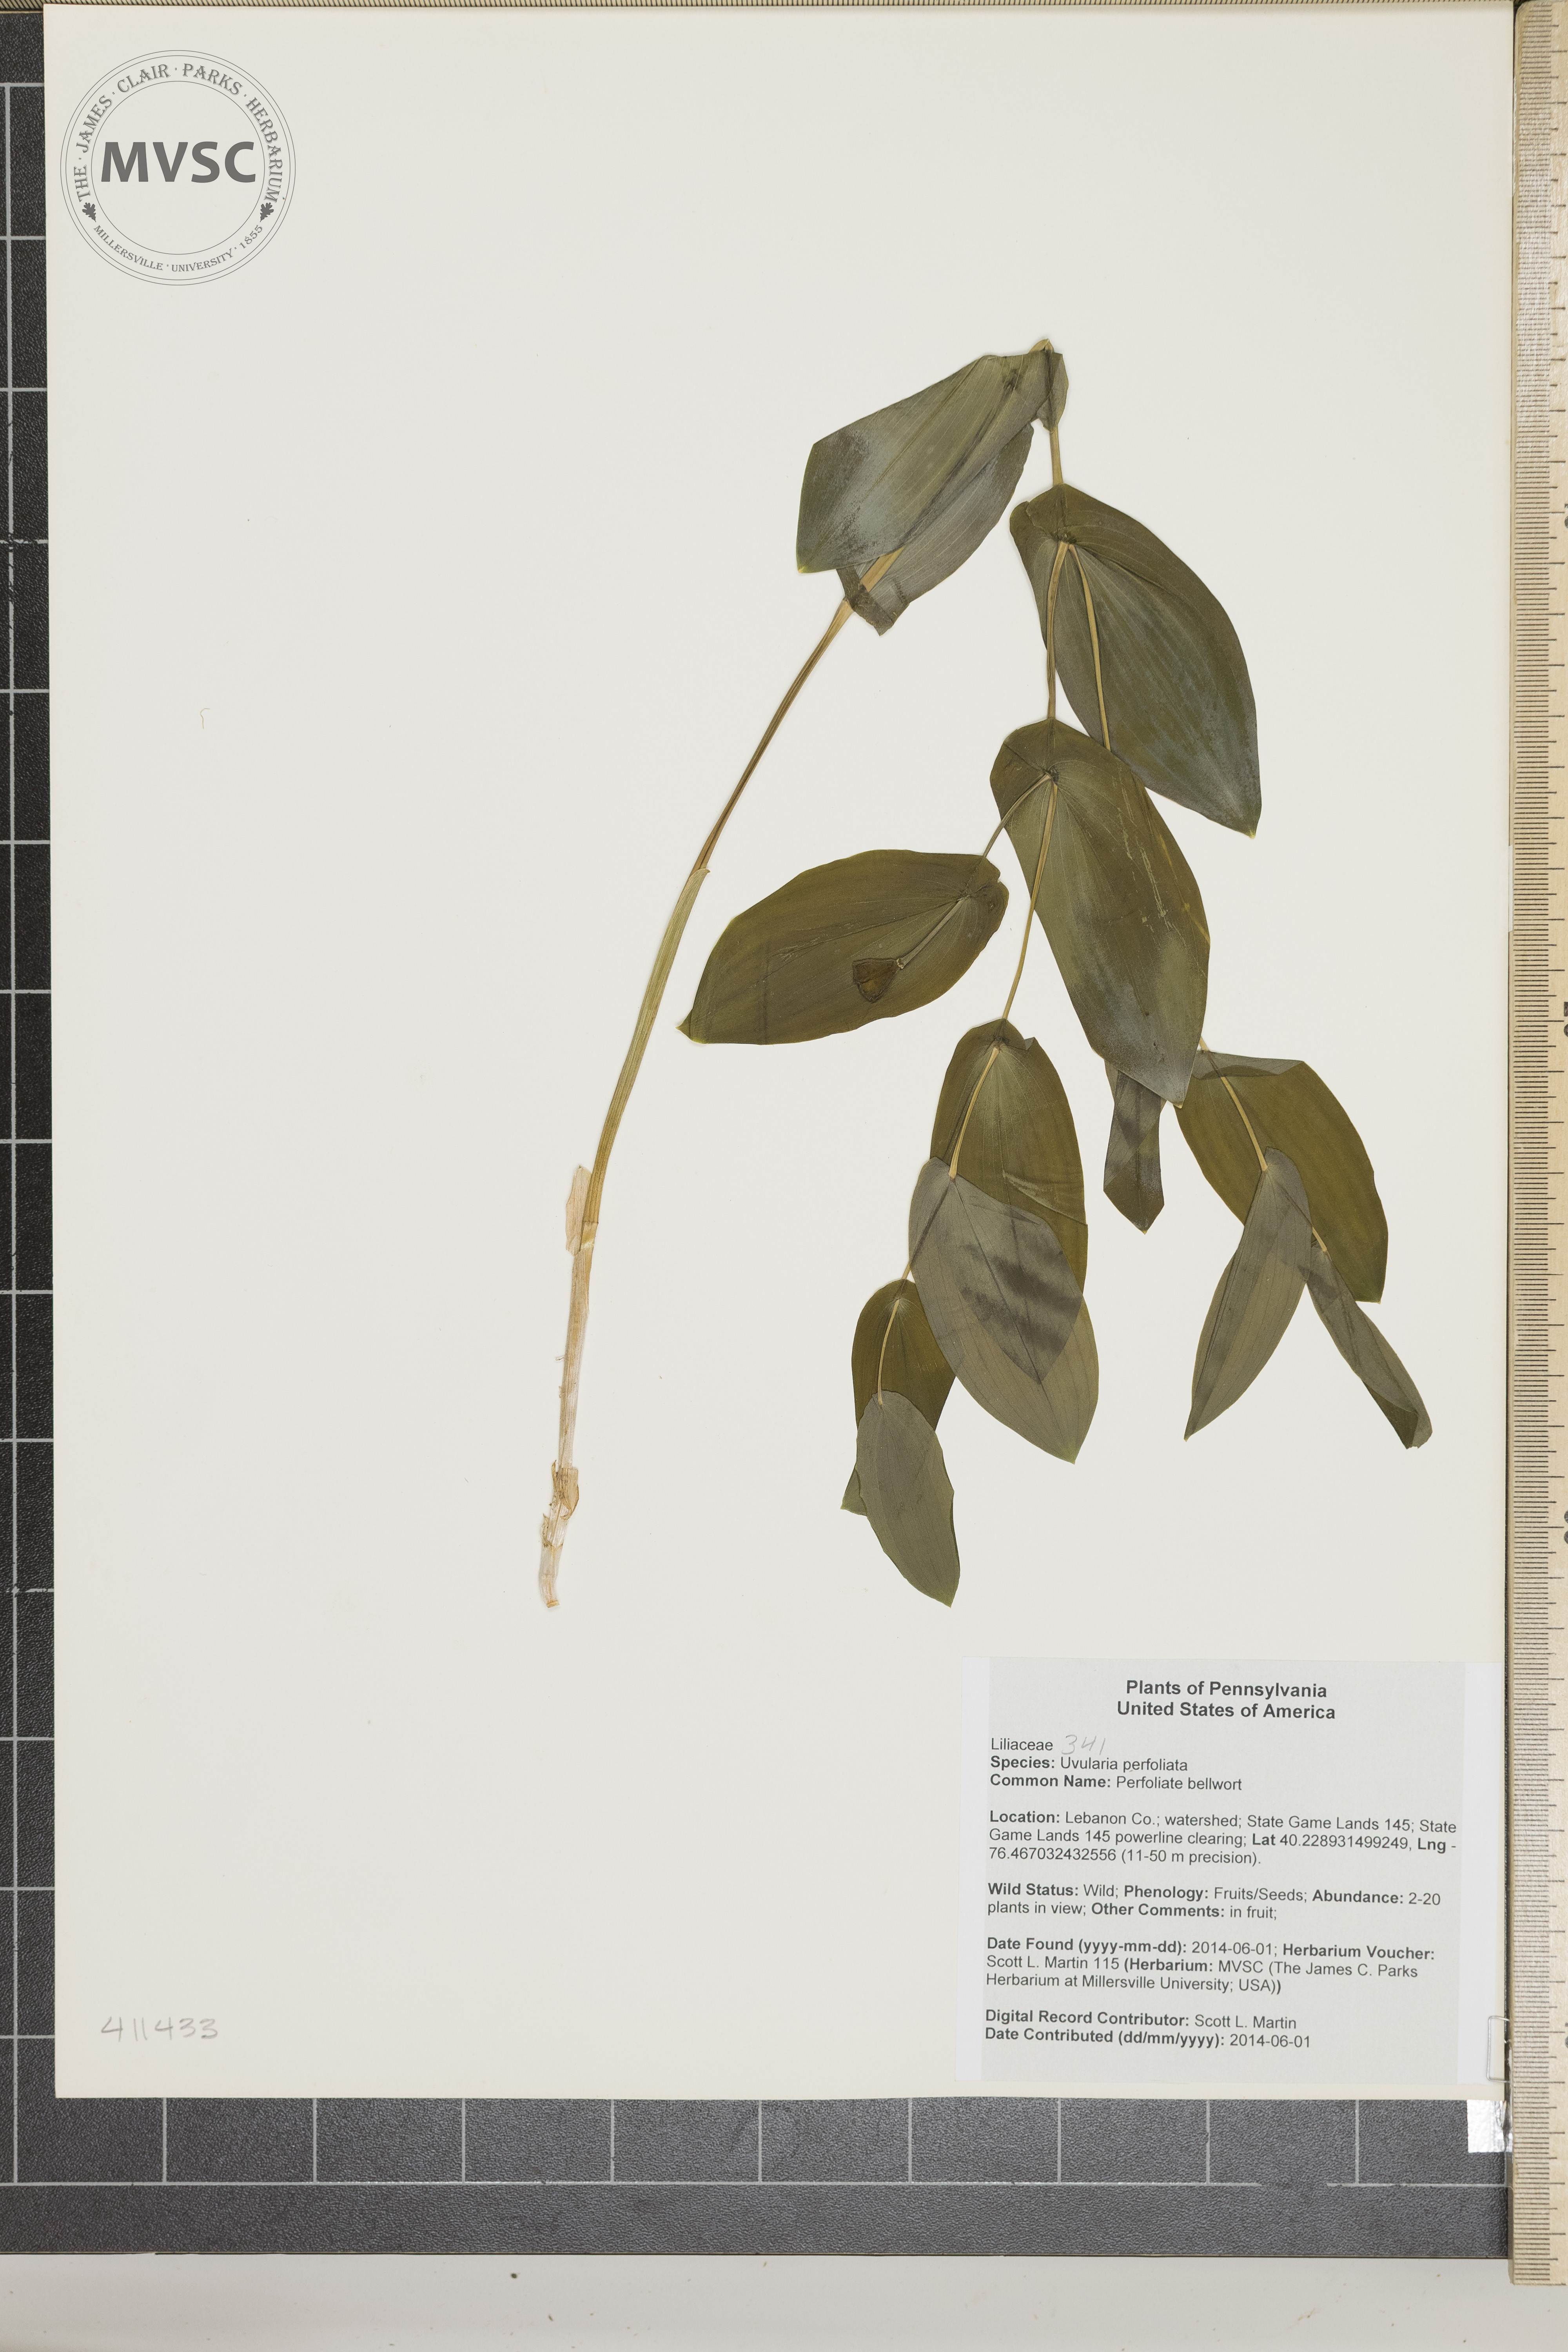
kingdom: Plantae
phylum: Tracheophyta
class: Liliopsida
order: Liliales
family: Colchicaceae
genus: Uvularia
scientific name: Uvularia perfoliata
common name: Perfoliate bellwort
